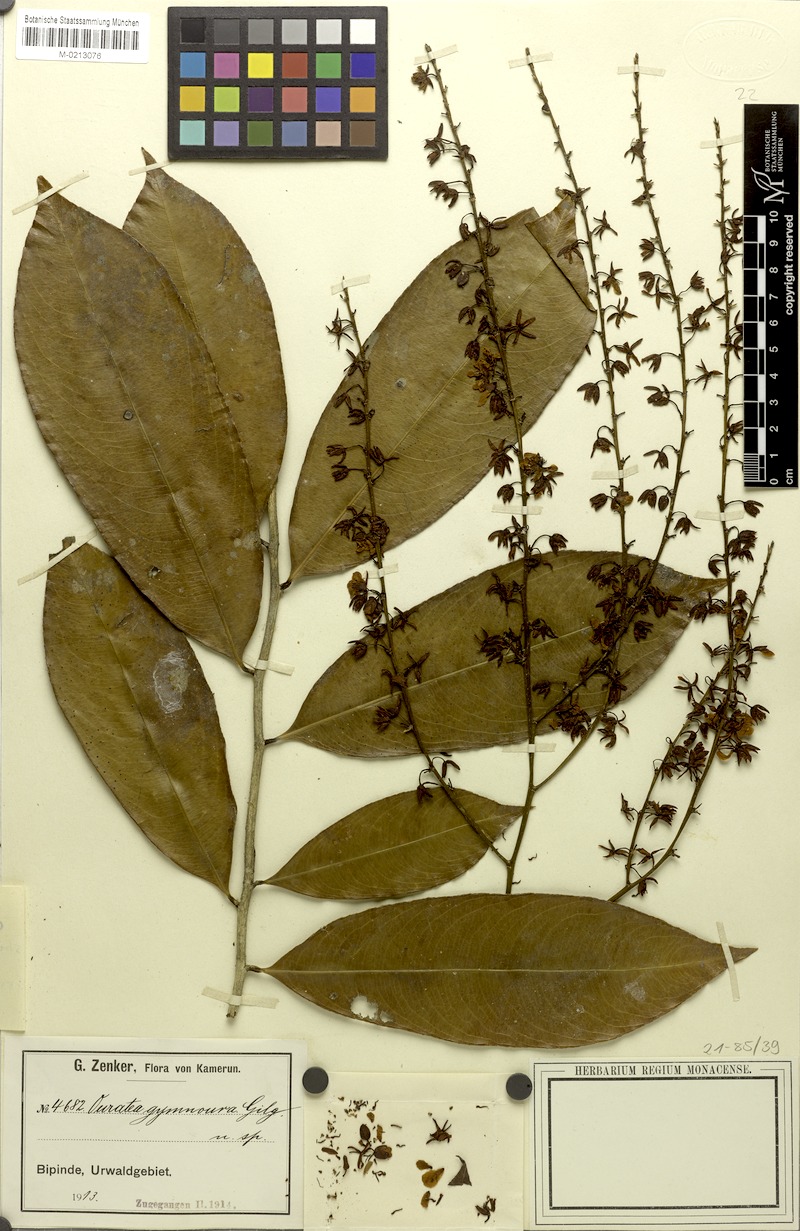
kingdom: Plantae
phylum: Tracheophyta
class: Magnoliopsida
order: Malpighiales
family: Ochnaceae
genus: Campylospermum
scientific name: Campylospermum strictum
